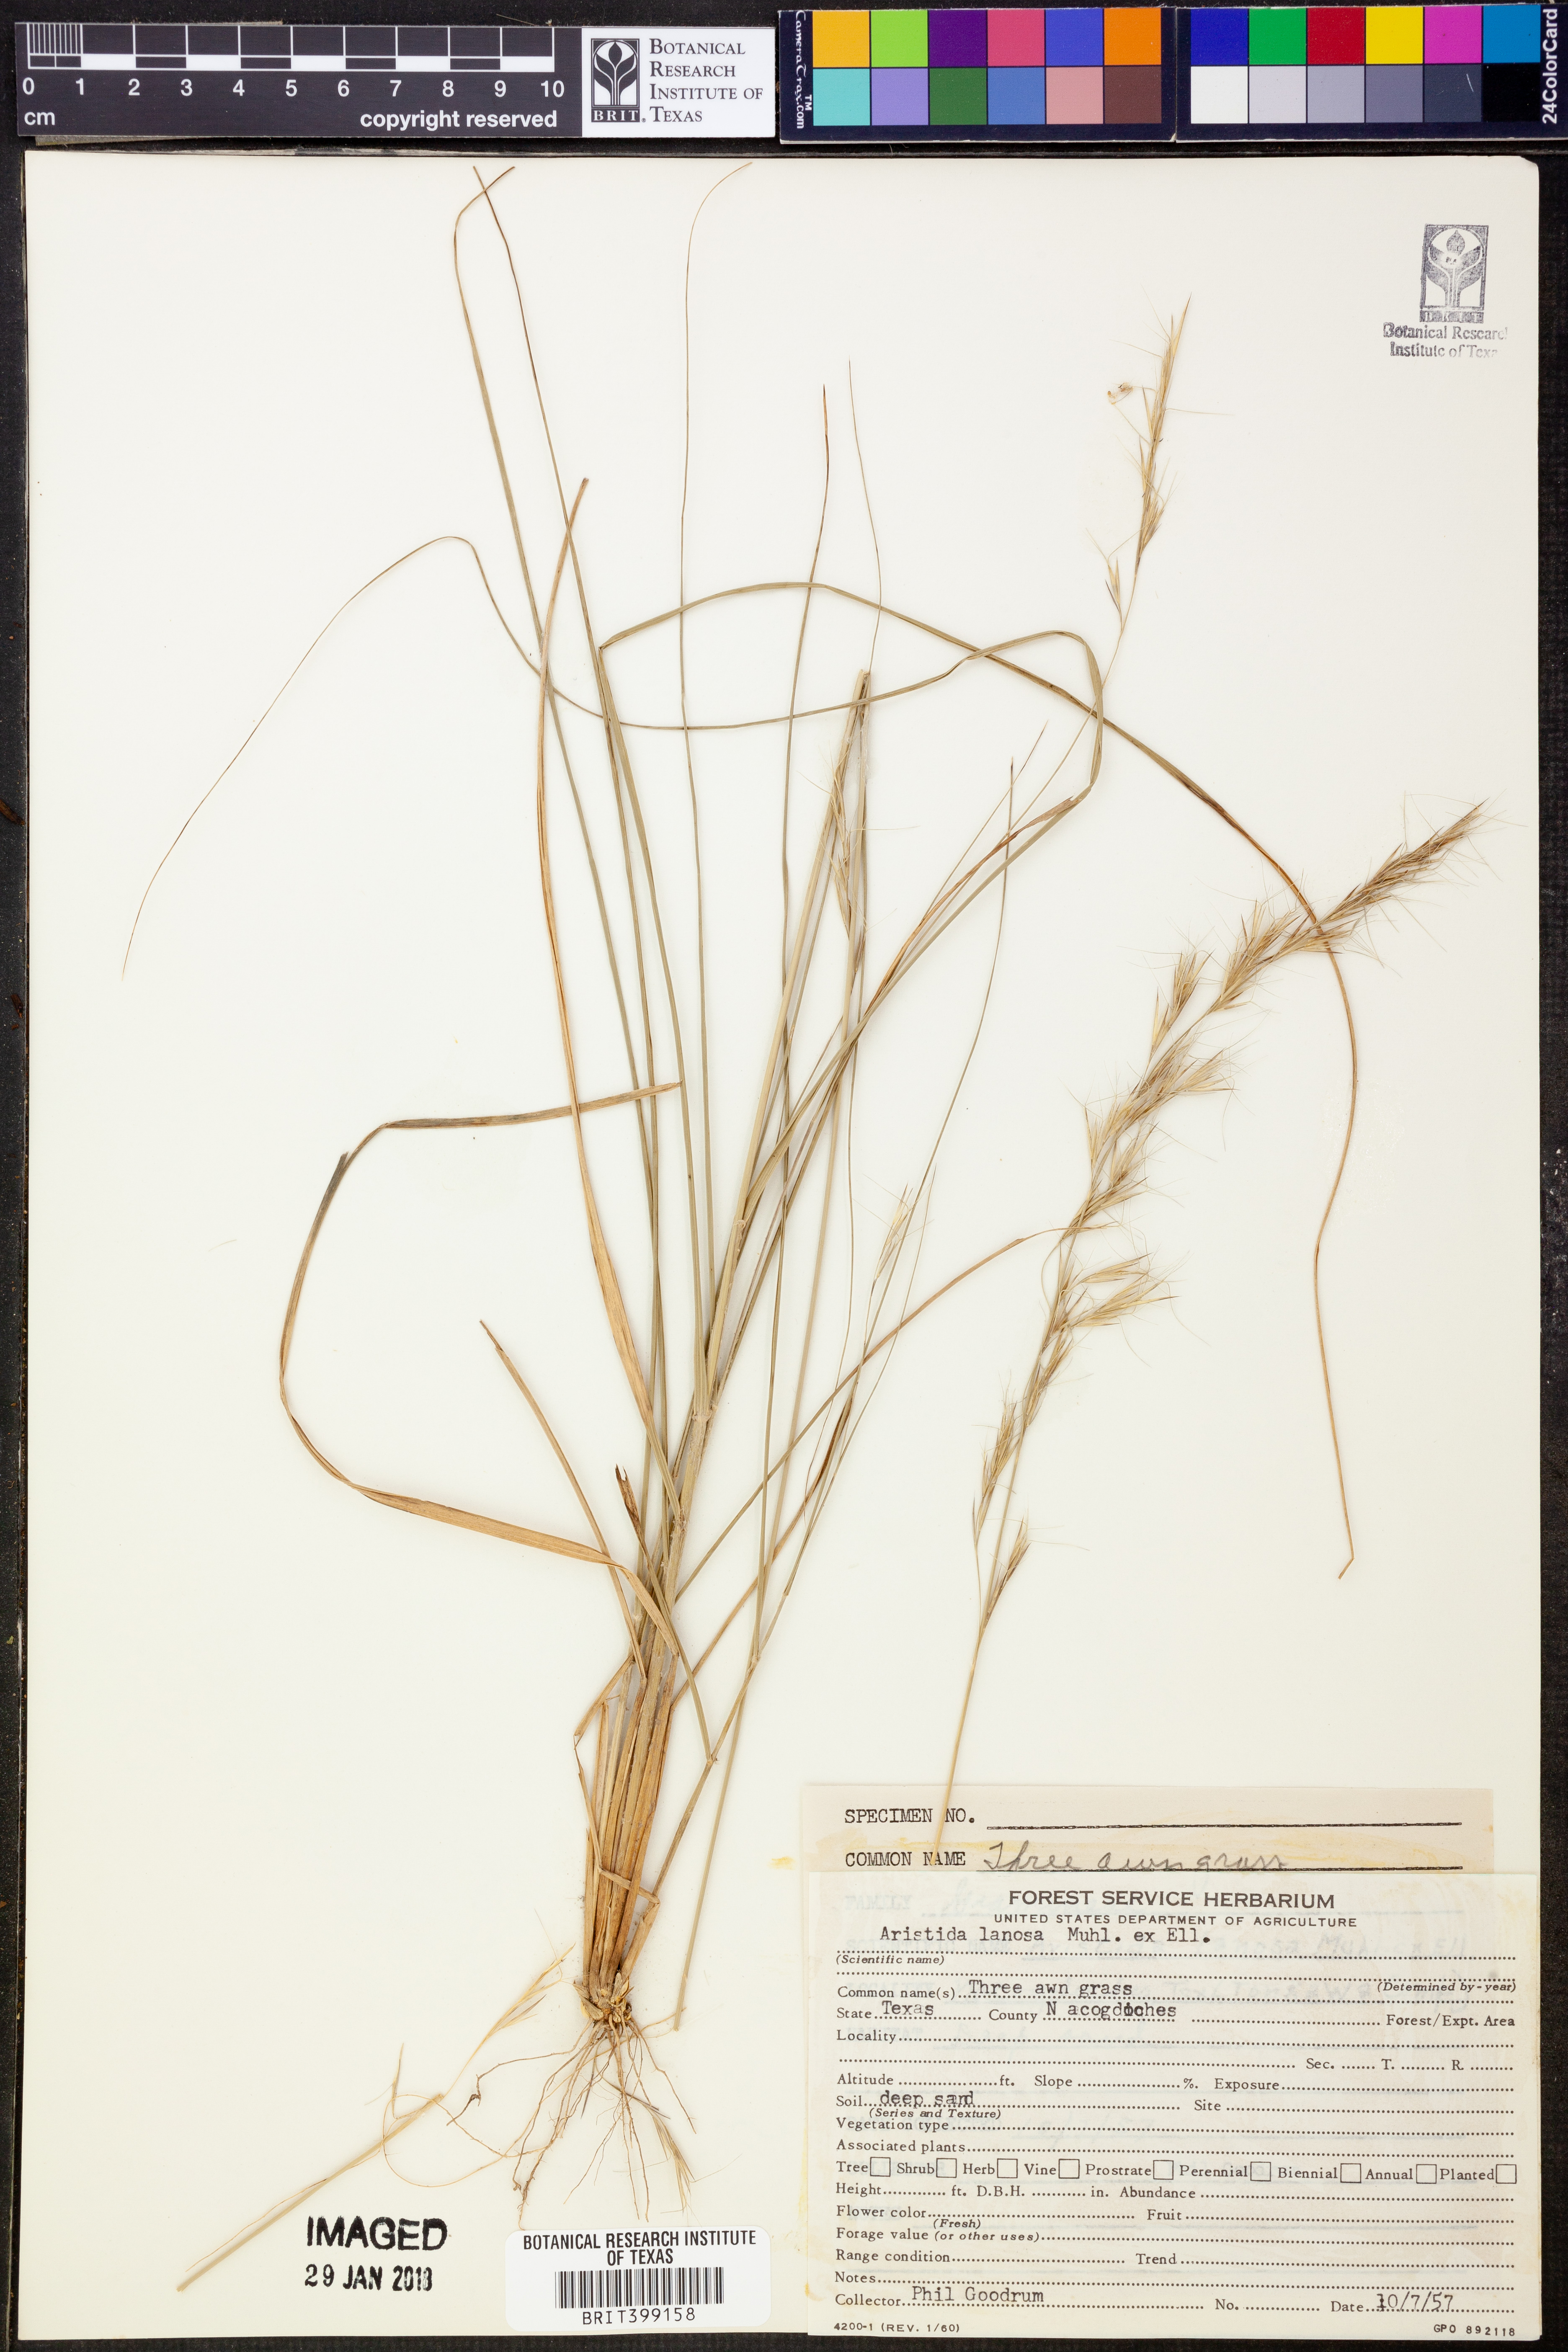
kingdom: Plantae
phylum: Tracheophyta
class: Liliopsida
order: Poales
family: Poaceae
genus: Aristida
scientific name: Aristida lanosa
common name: Woolly three-awn
